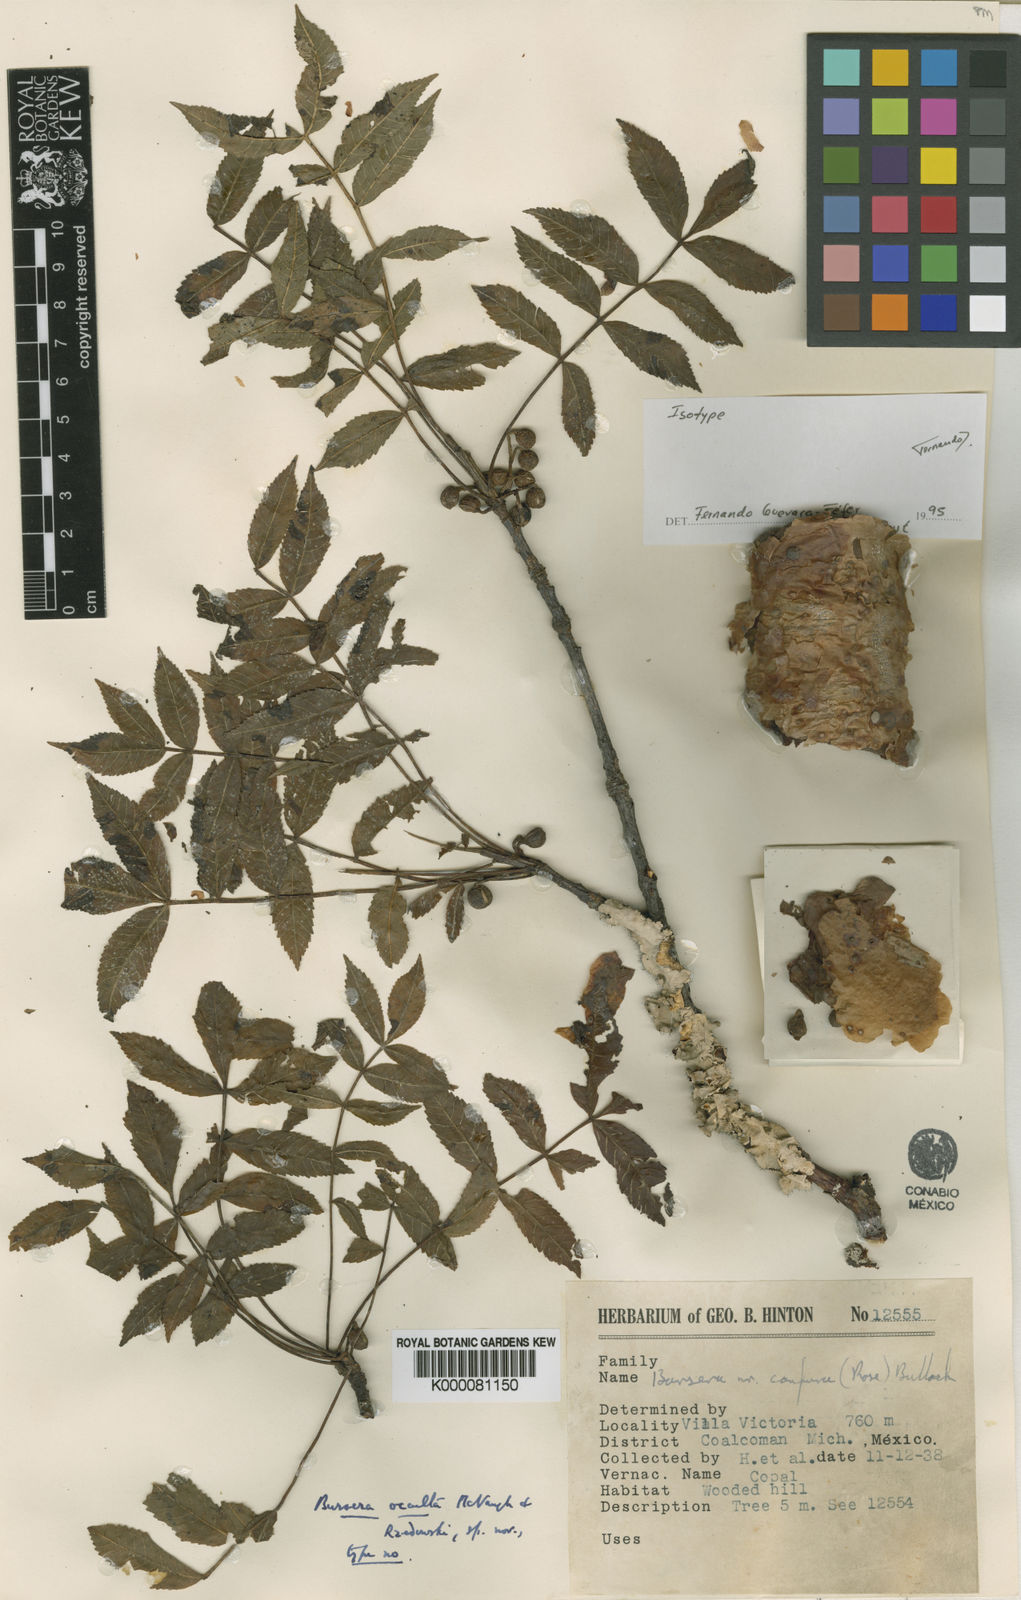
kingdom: Plantae
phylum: Tracheophyta
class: Magnoliopsida
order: Sapindales
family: Burseraceae
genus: Bursera
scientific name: Bursera occulta
